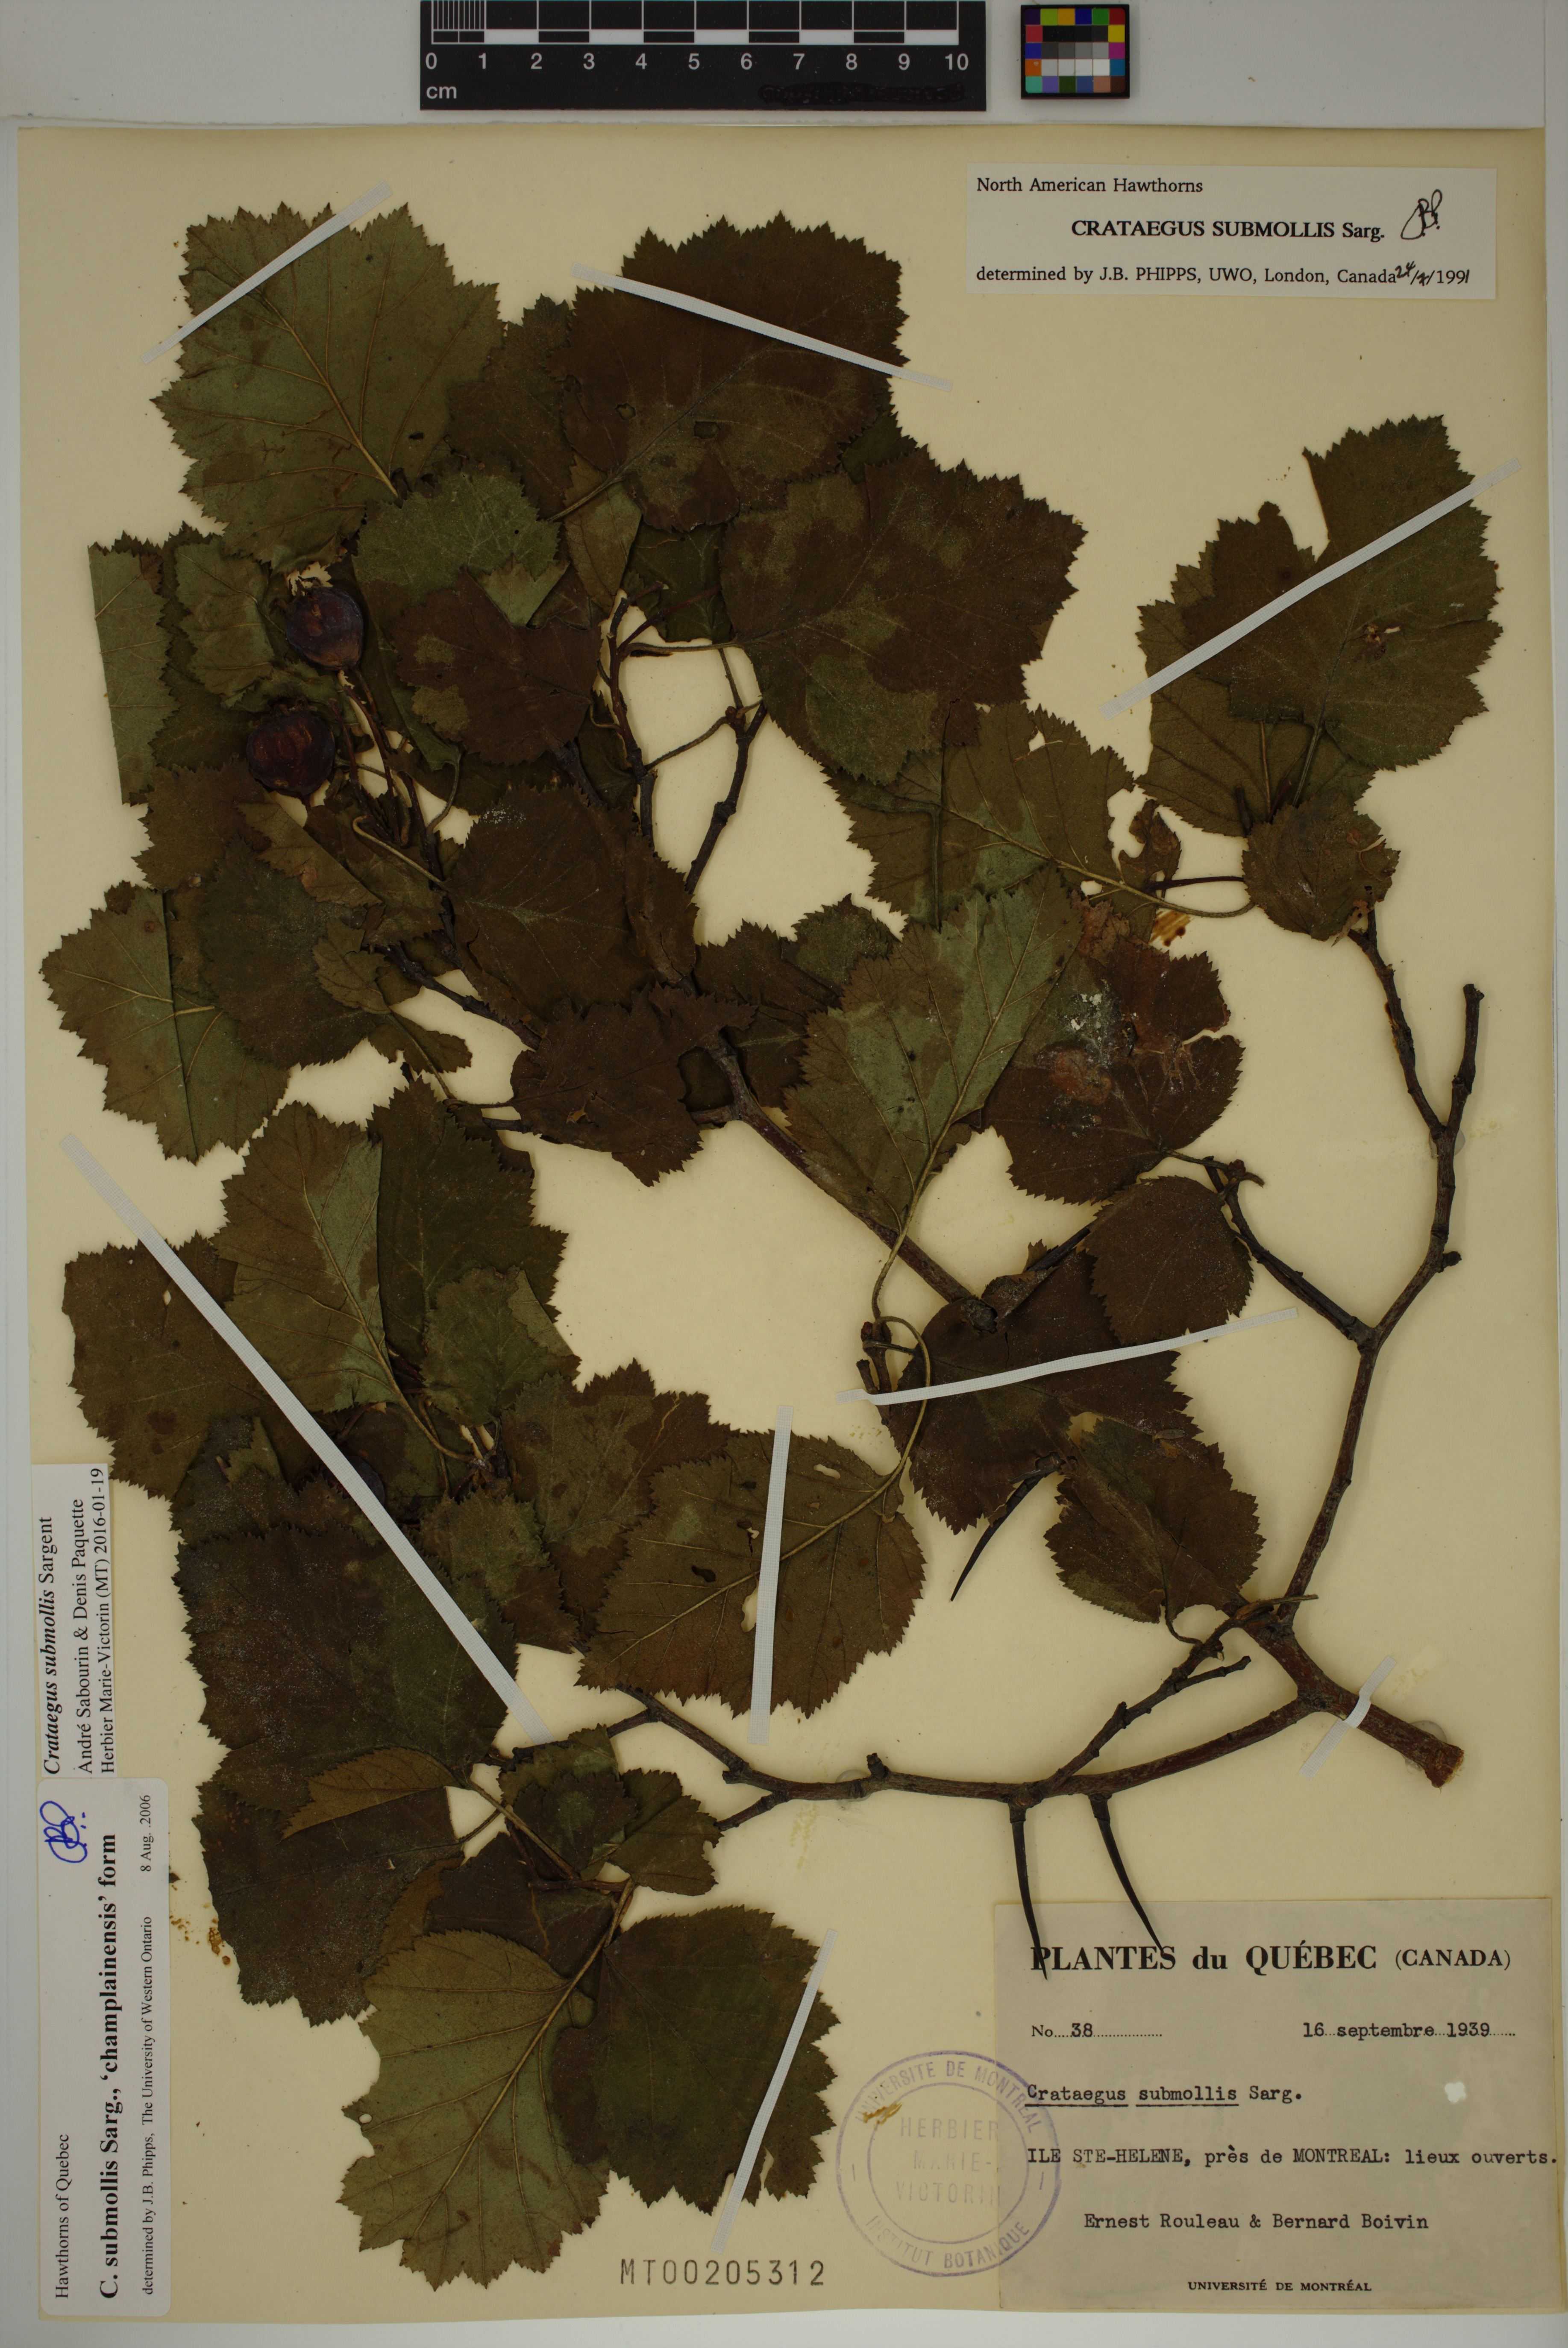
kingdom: Plantae
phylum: Tracheophyta
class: Magnoliopsida
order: Rosales
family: Rosaceae
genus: Crataegus
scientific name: Crataegus submollis
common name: Hairy cockspurthorn
